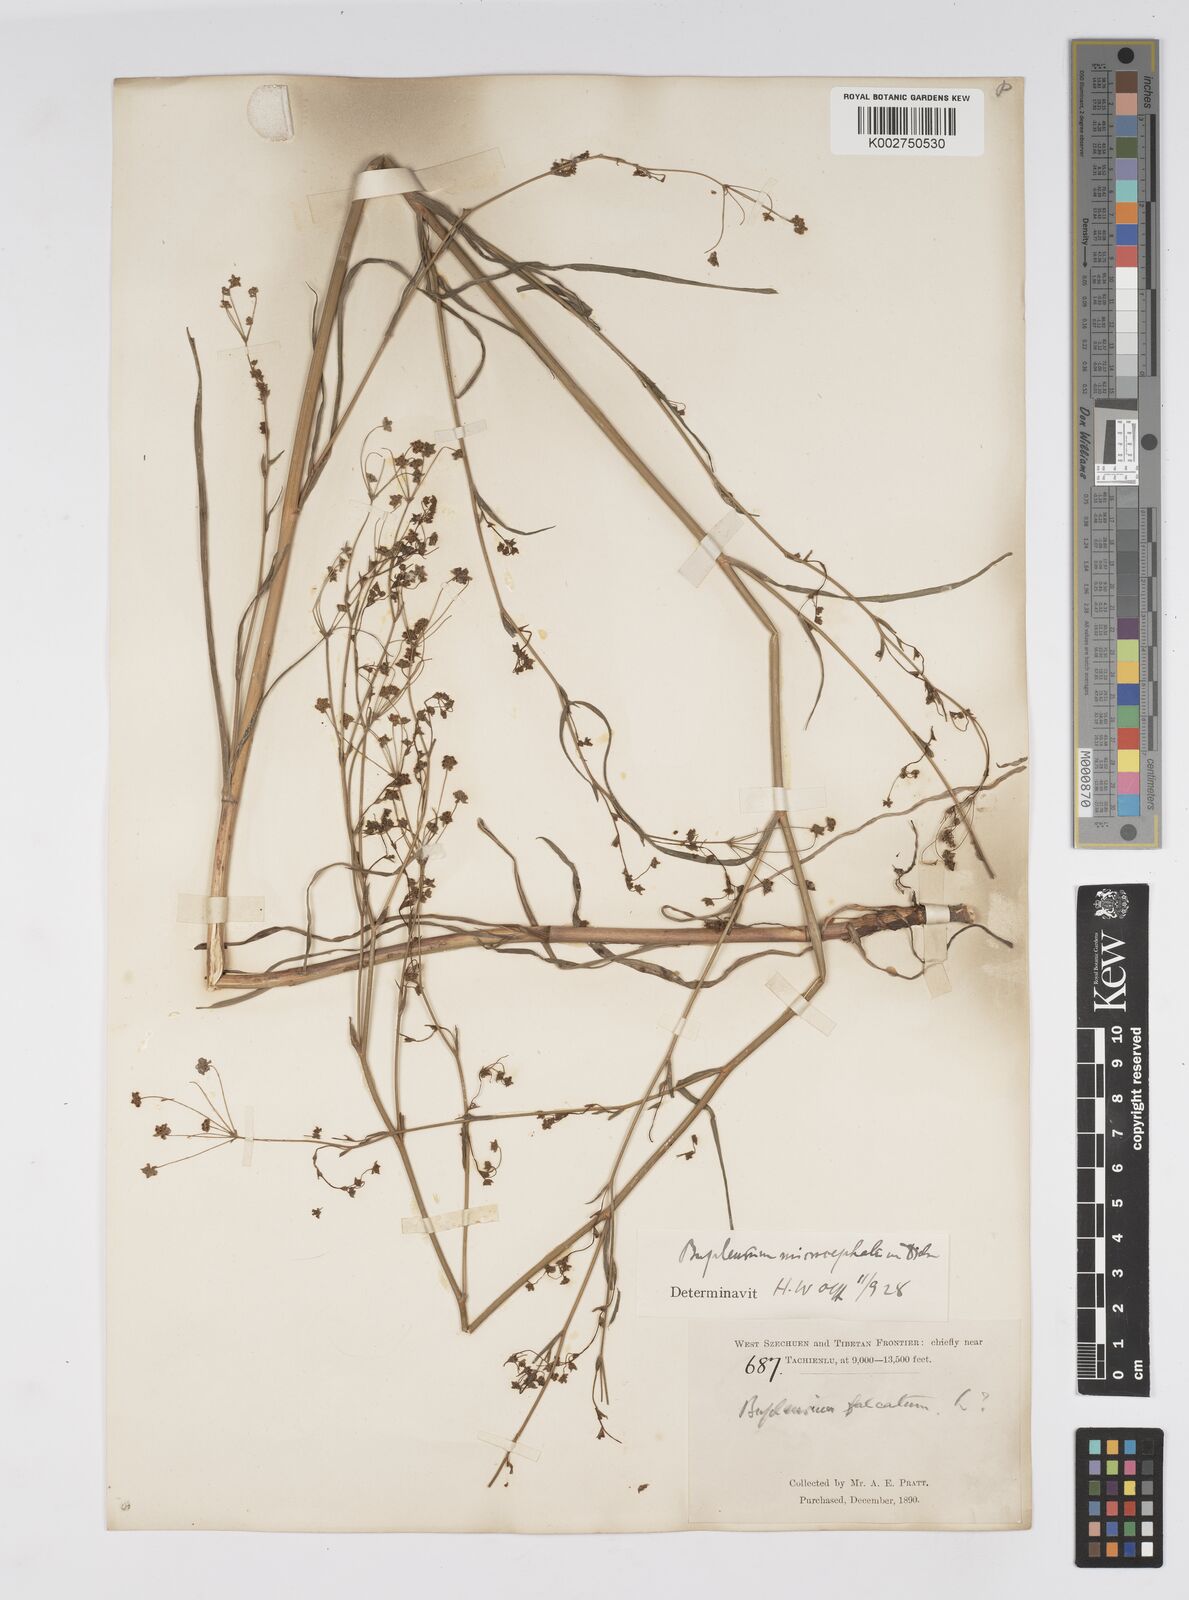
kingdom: Plantae
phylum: Tracheophyta
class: Magnoliopsida
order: Apiales
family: Apiaceae
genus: Bupleurum
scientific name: Bupleurum microcephalum
